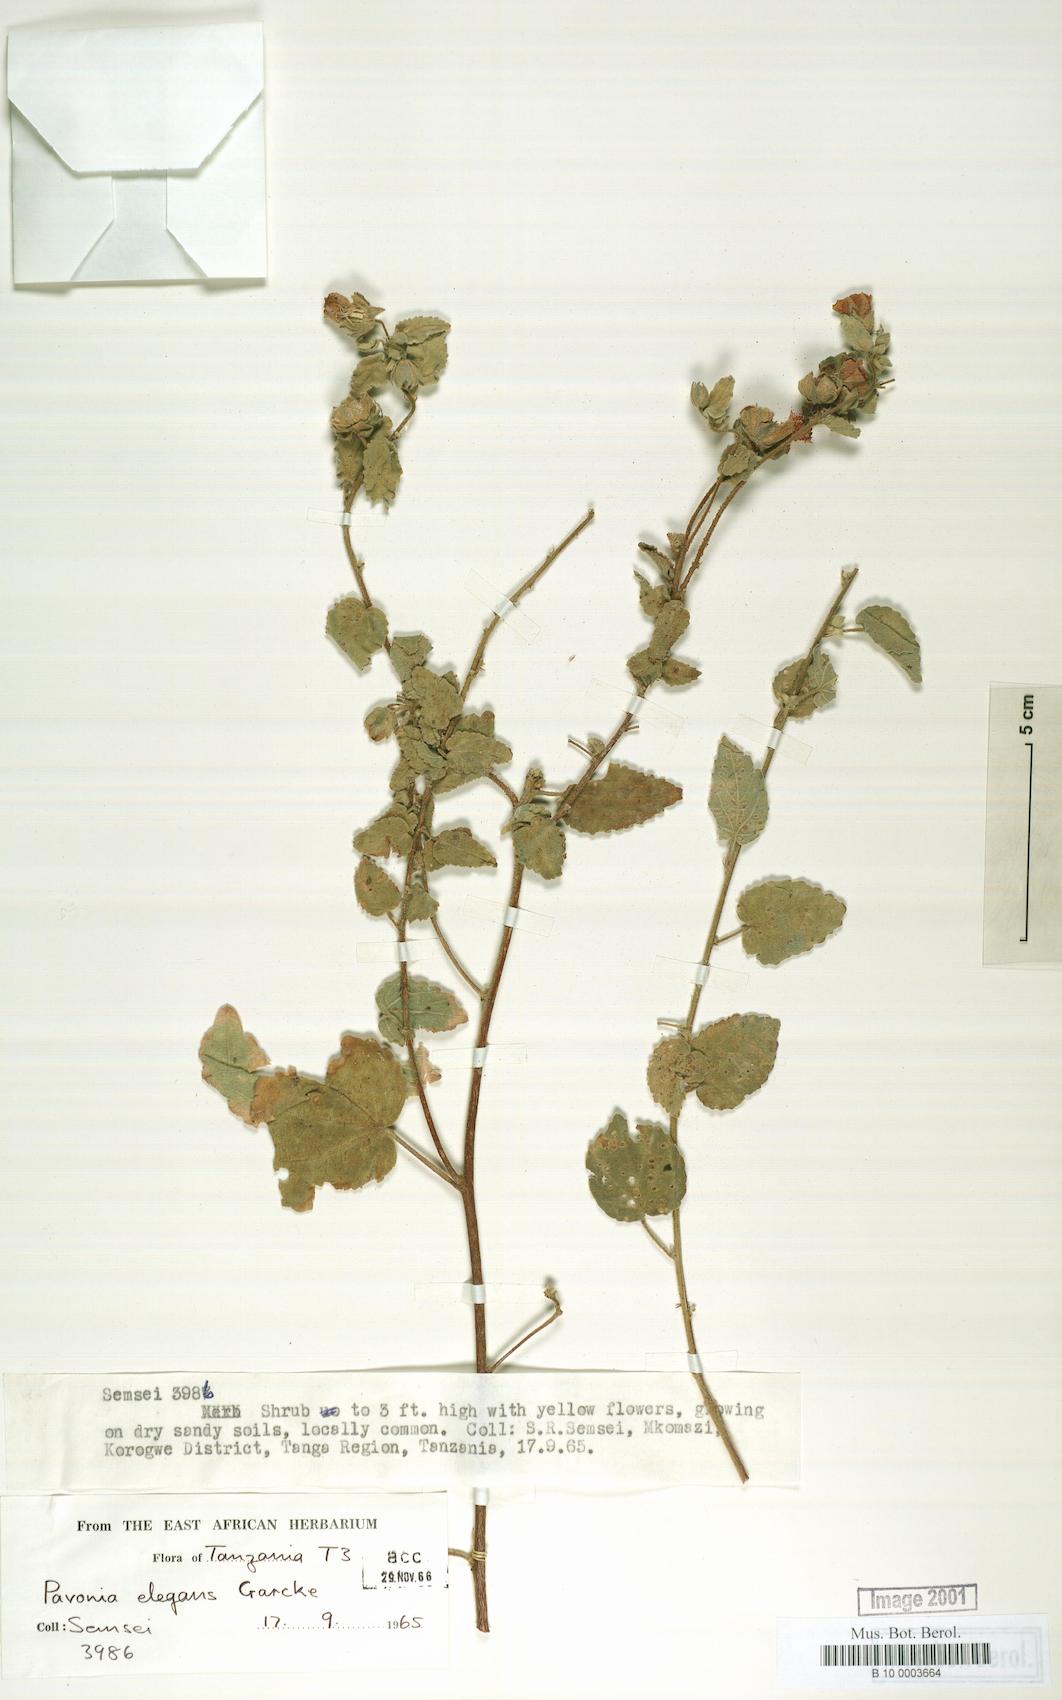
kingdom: Plantae
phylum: Tracheophyta
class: Magnoliopsida
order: Malvales
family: Malvaceae
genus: Pavonia
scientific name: Pavonia elegans
